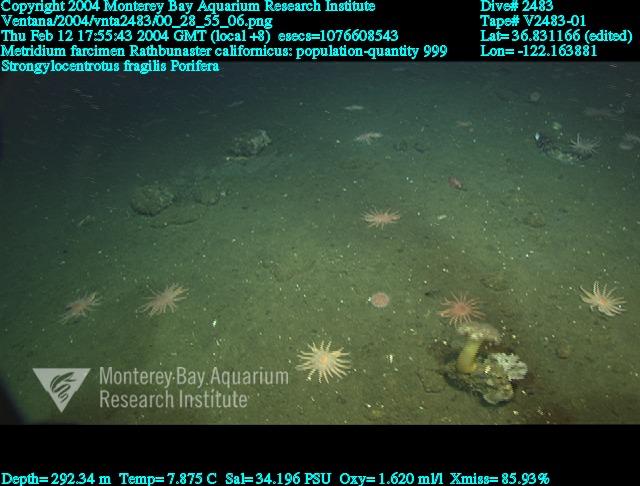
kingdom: Animalia
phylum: Porifera
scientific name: Porifera
